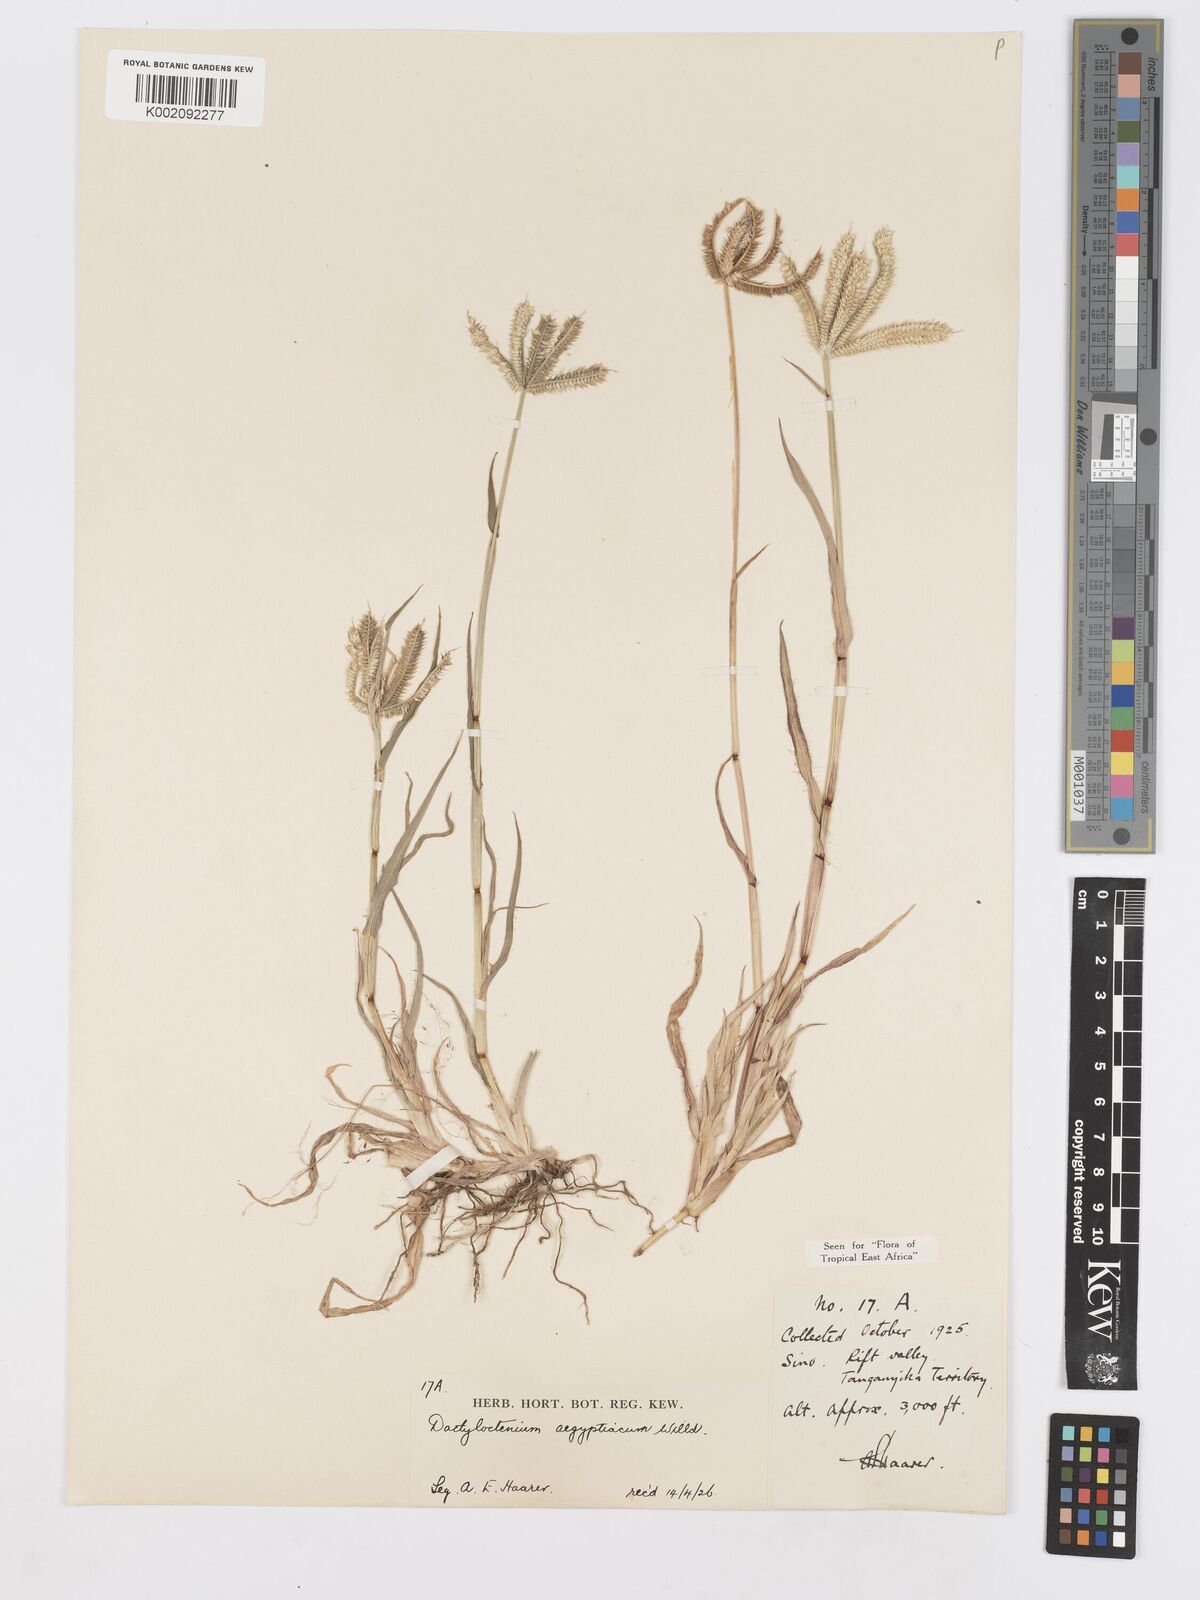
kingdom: Plantae
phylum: Tracheophyta
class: Liliopsida
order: Poales
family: Poaceae
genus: Dactyloctenium
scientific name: Dactyloctenium aegyptium
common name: Egyptian grass
